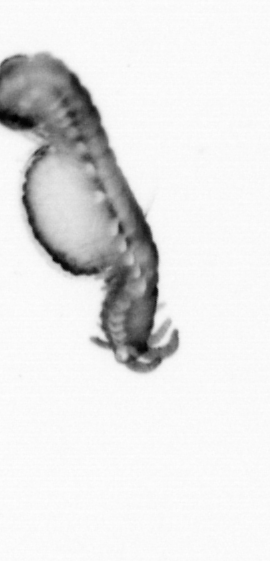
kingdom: Animalia
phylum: Annelida
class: Polychaeta
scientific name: Polychaeta
